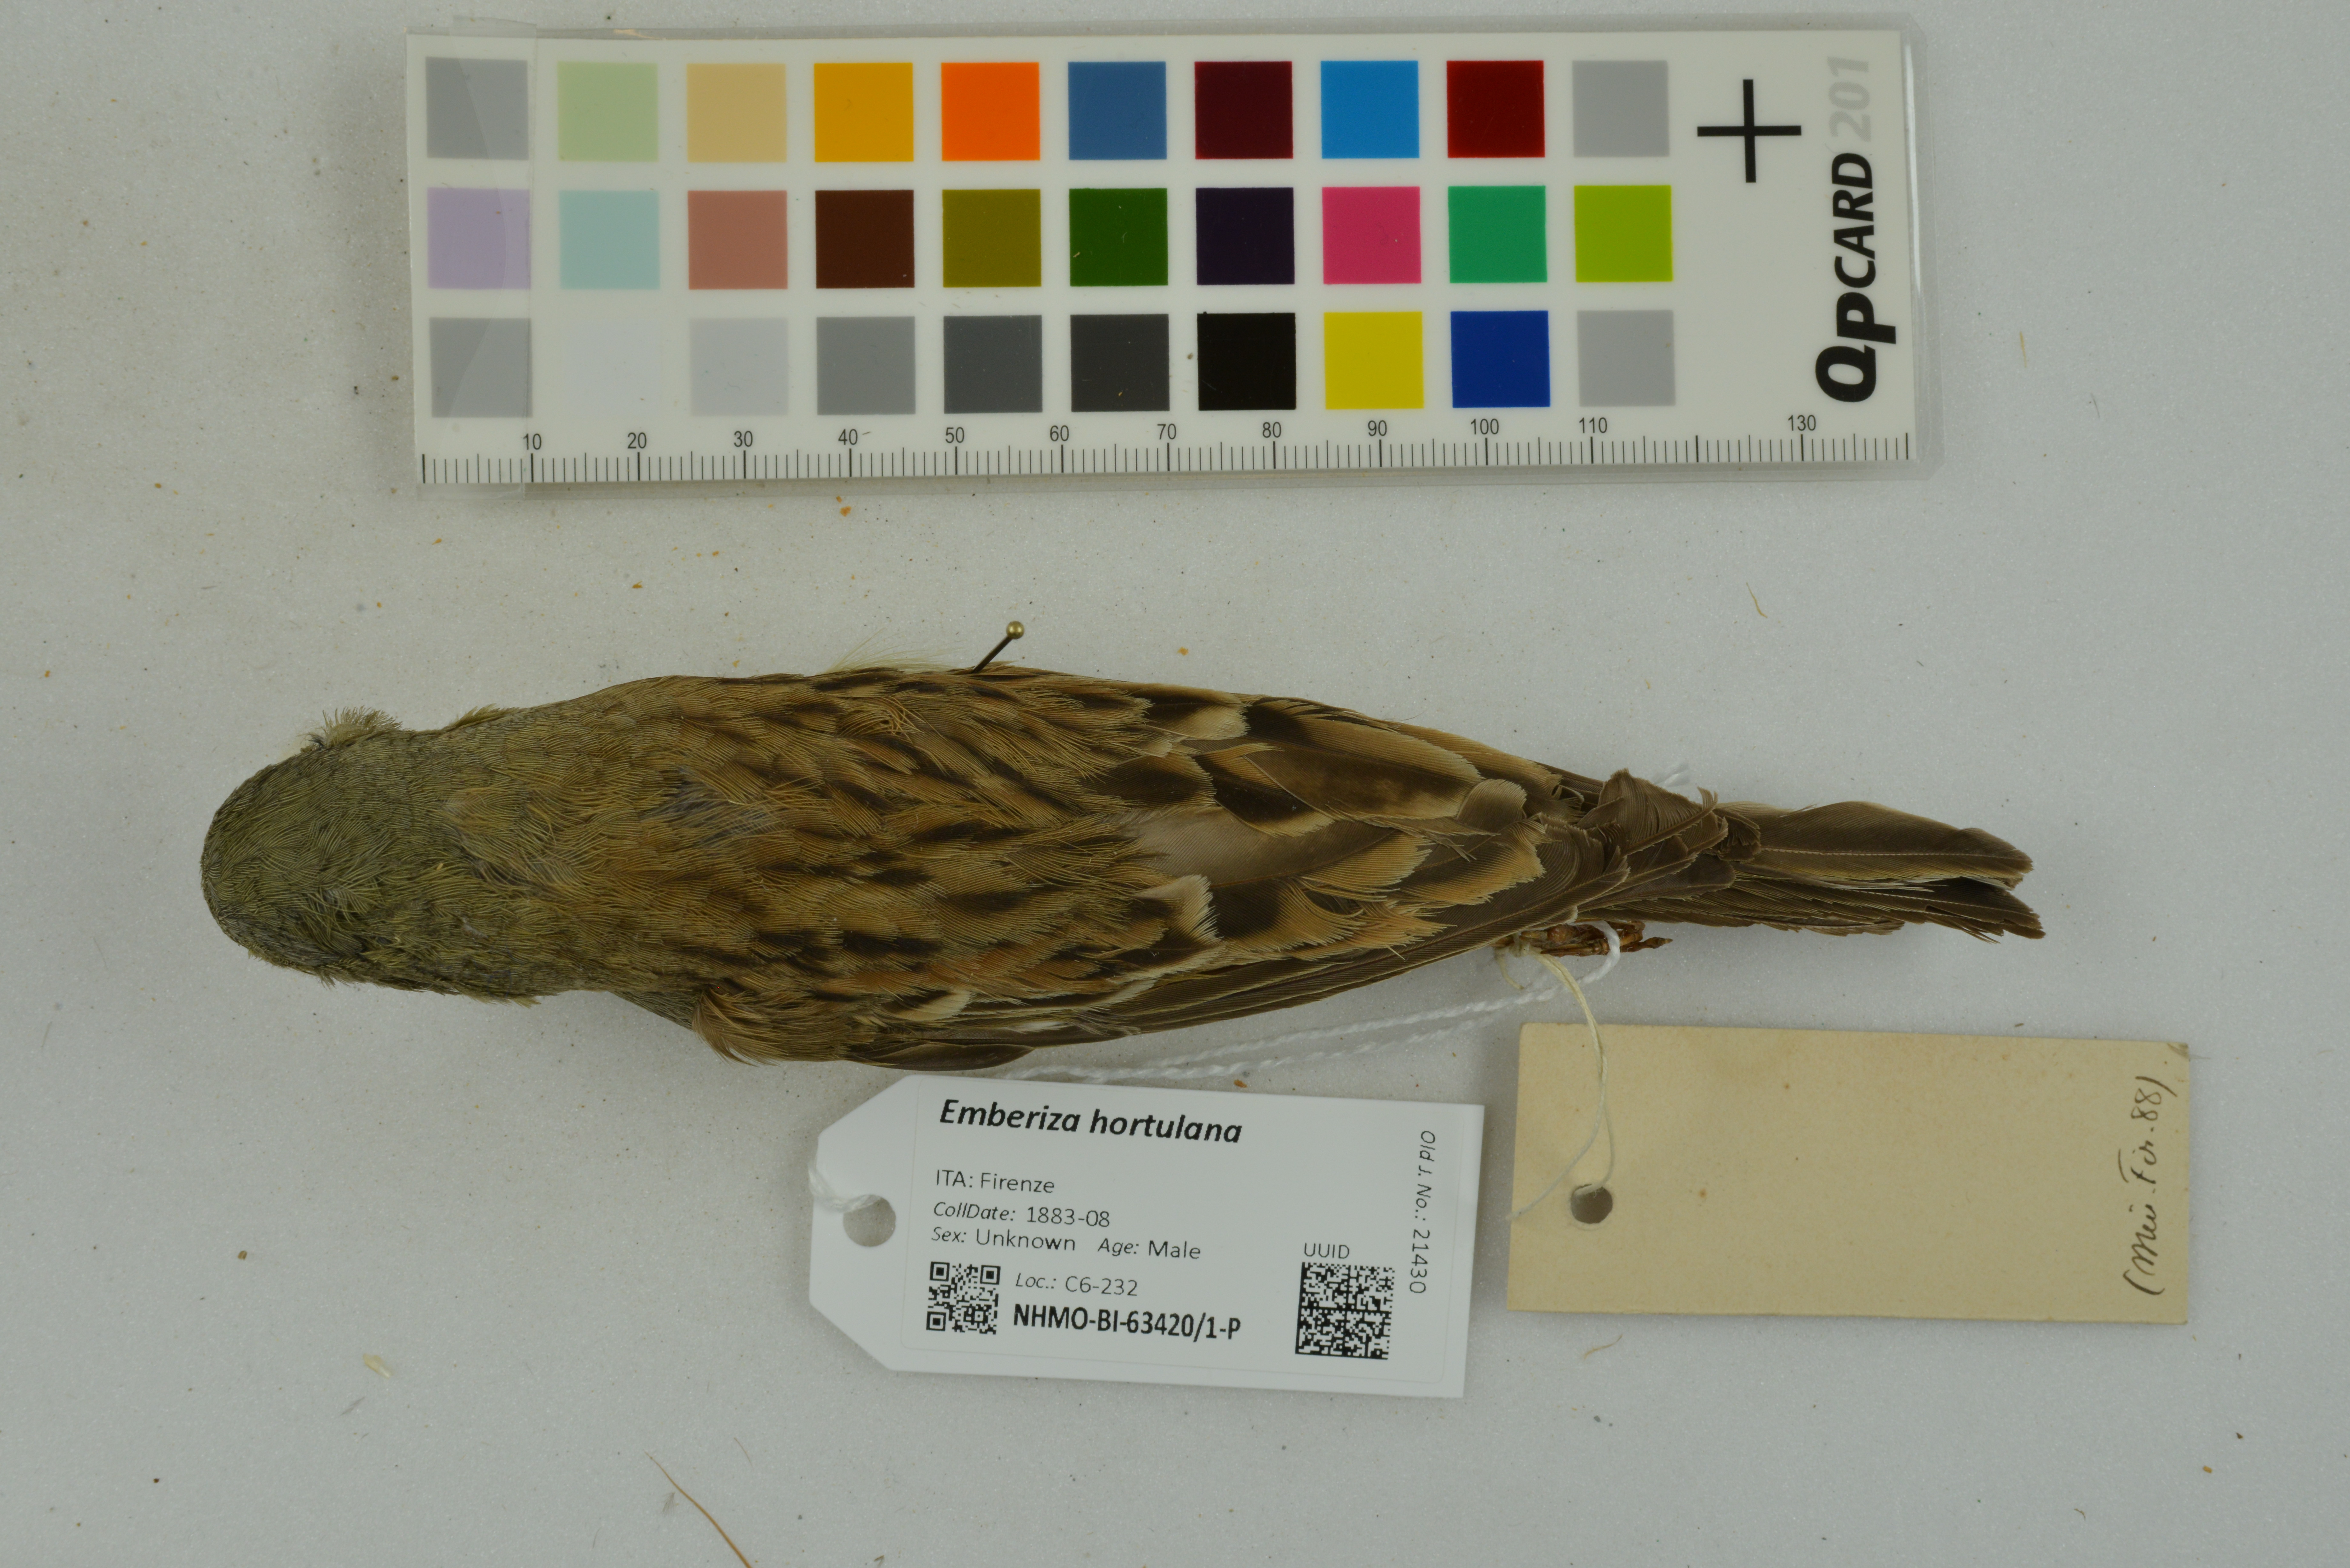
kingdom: Animalia
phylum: Chordata
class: Aves
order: Passeriformes
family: Emberizidae
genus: Emberiza
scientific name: Emberiza hortulana
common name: Ortolan bunting
